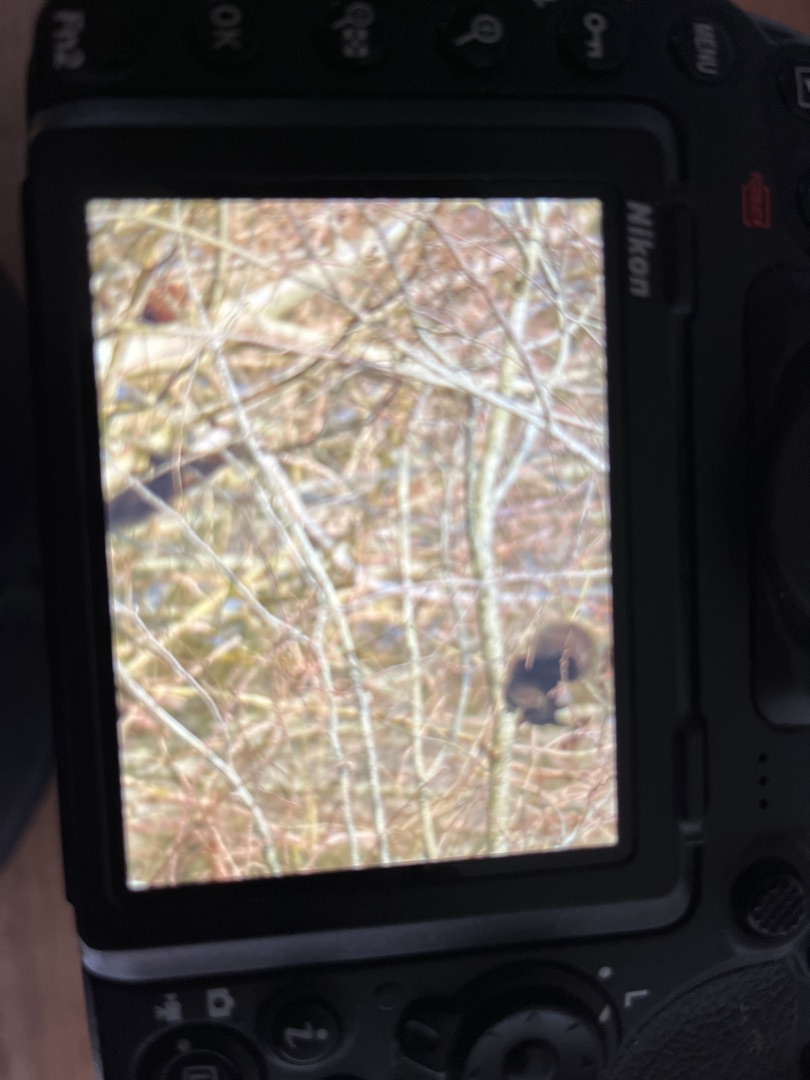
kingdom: Animalia
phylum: Chordata
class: Mammalia
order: Rodentia
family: Sciuridae
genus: Sciurus
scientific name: Sciurus vulgaris
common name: Egern
